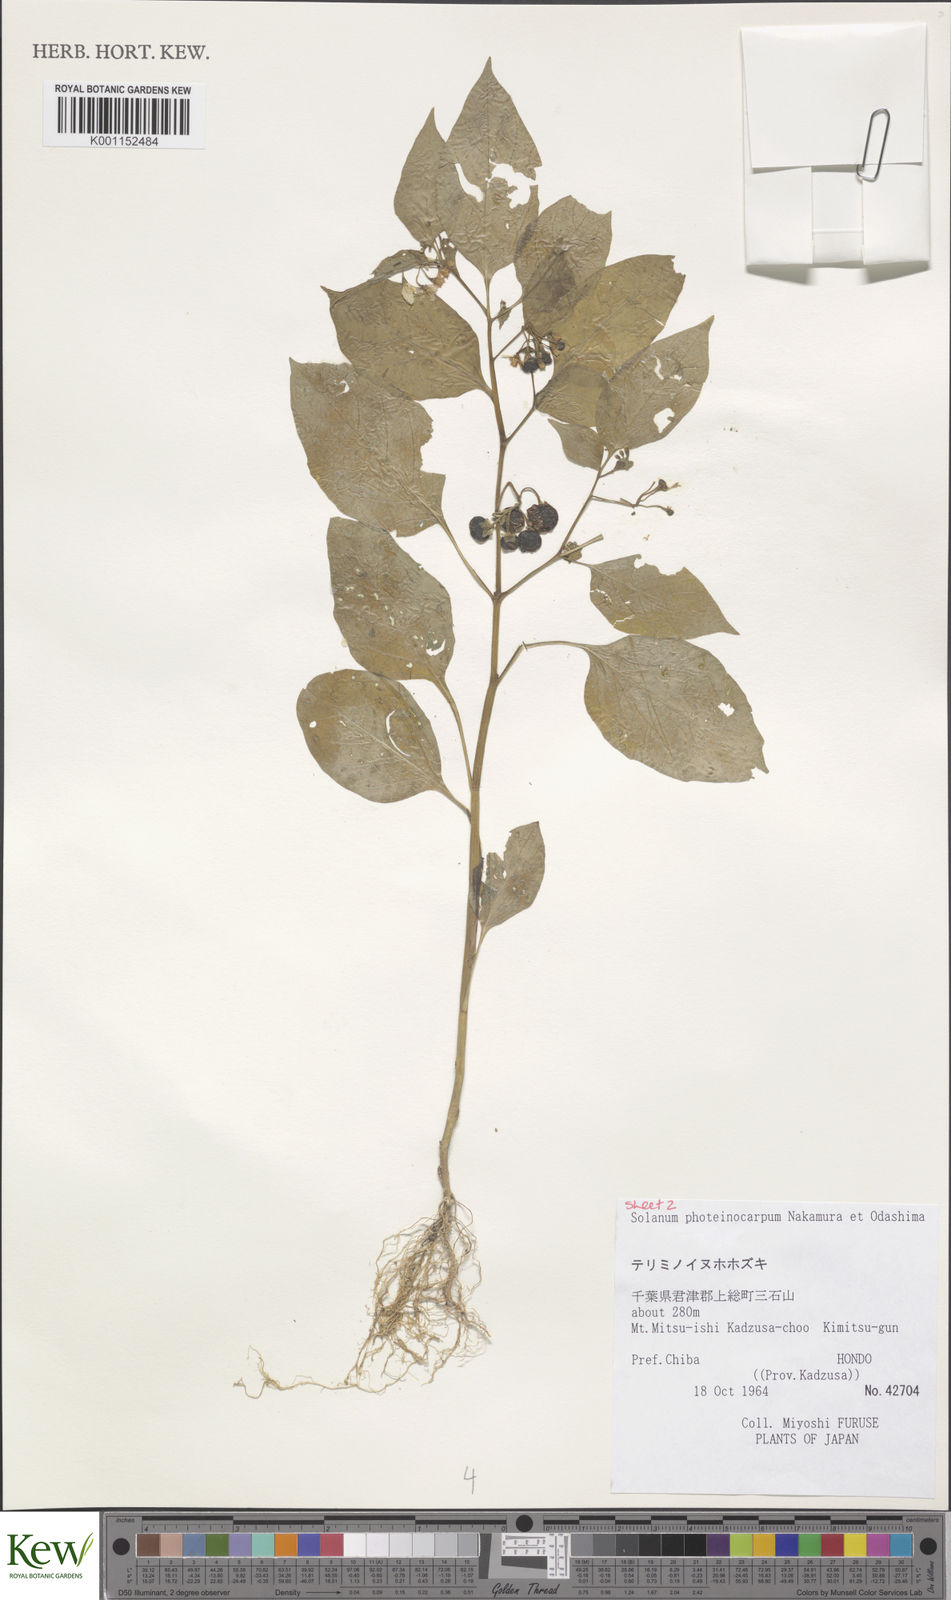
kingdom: Plantae
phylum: Tracheophyta
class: Magnoliopsida
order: Solanales
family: Solanaceae
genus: Solanum
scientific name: Solanum americanum
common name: American black nightshade
